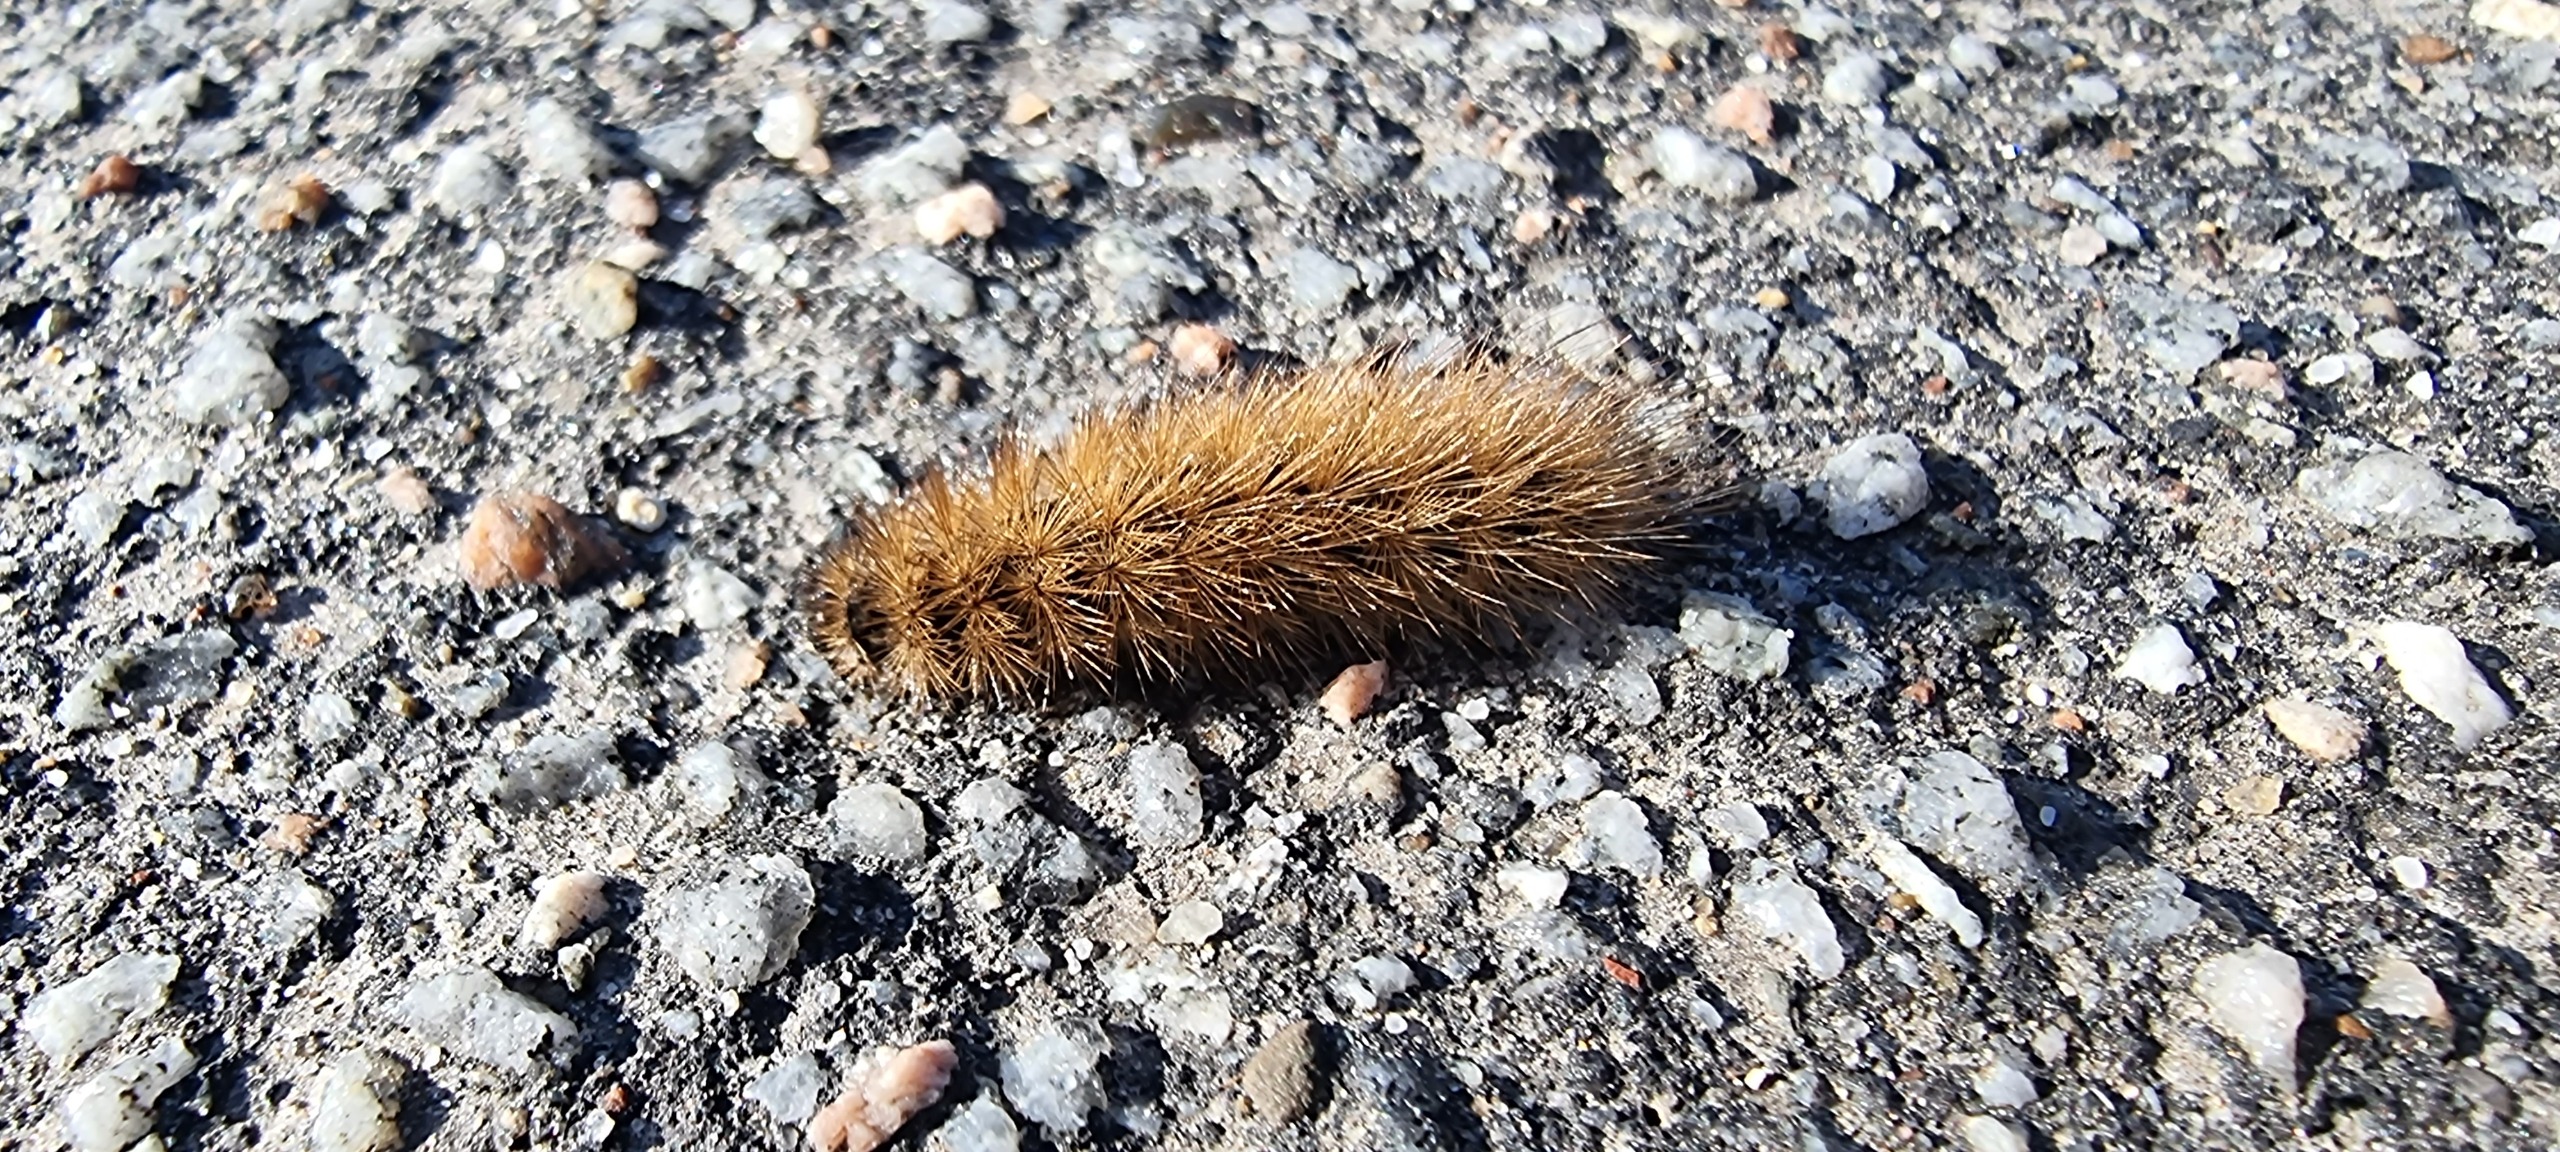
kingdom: Animalia
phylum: Arthropoda
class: Insecta
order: Lepidoptera
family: Erebidae
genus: Phragmatobia
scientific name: Phragmatobia fuliginosa
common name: Kanelbjørn
